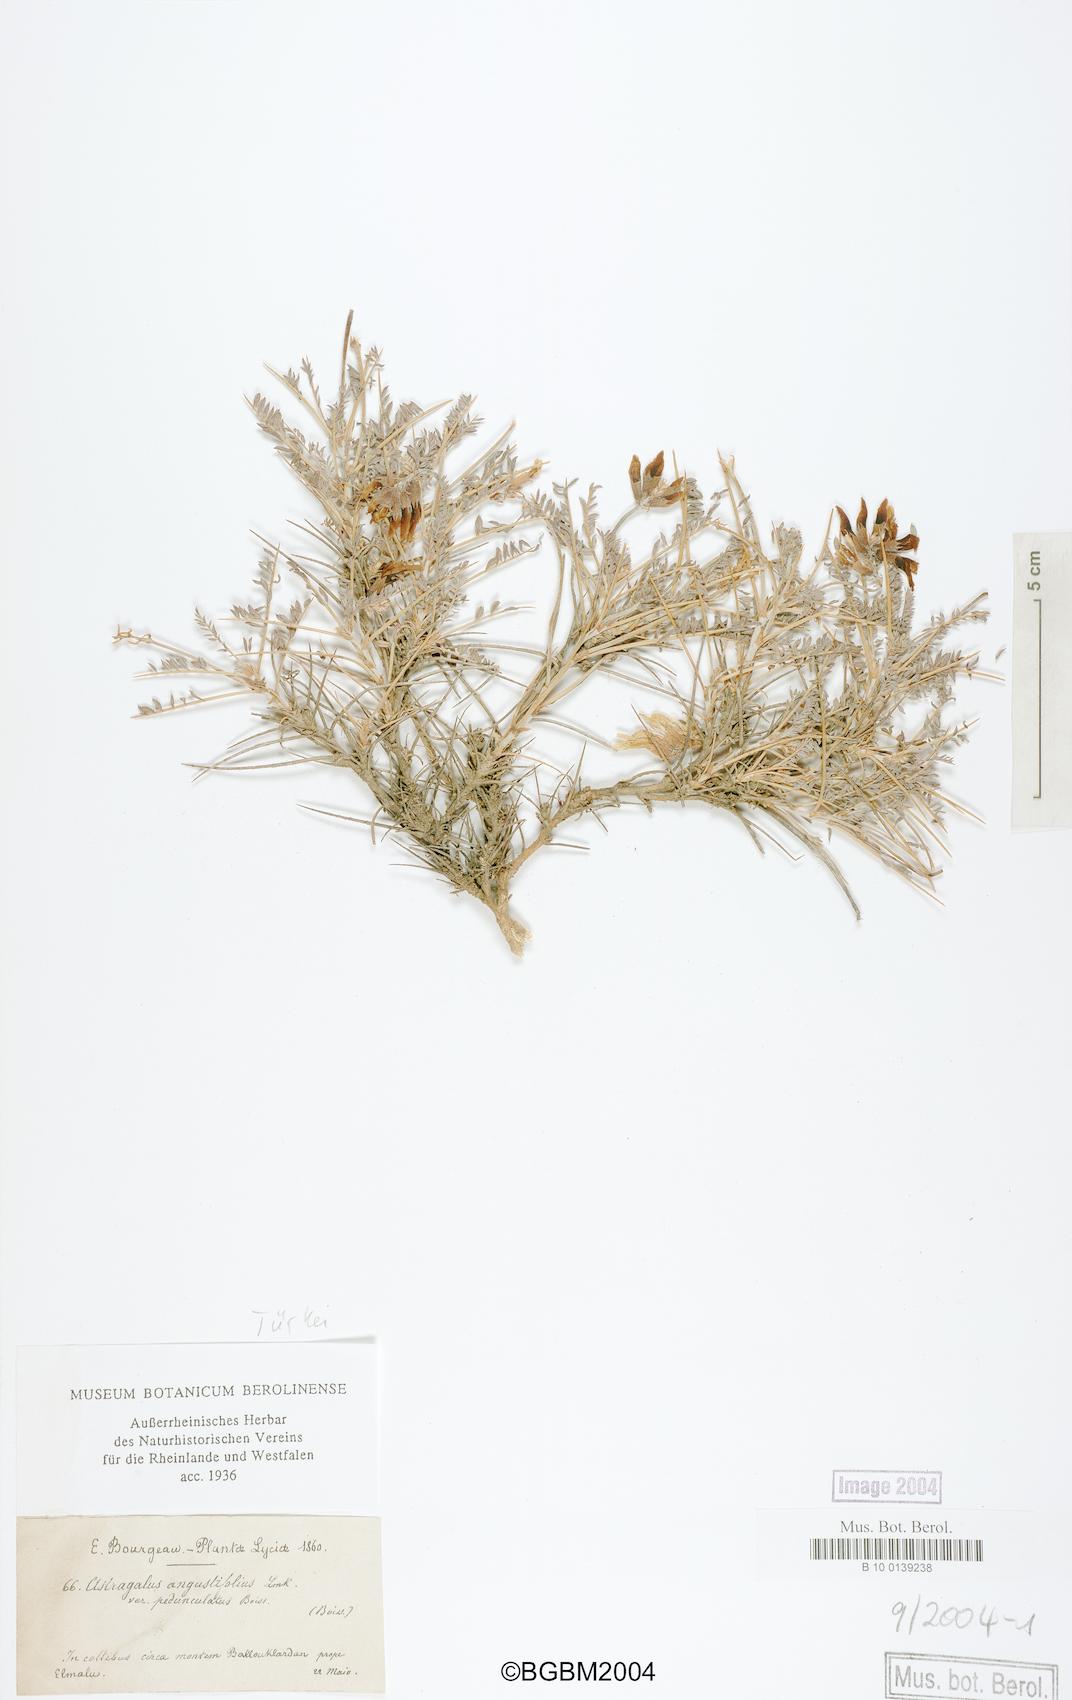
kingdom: Plantae
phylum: Tracheophyta
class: Magnoliopsida
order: Fabales
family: Fabaceae
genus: Astragalus
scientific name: Astragalus angustifolius
